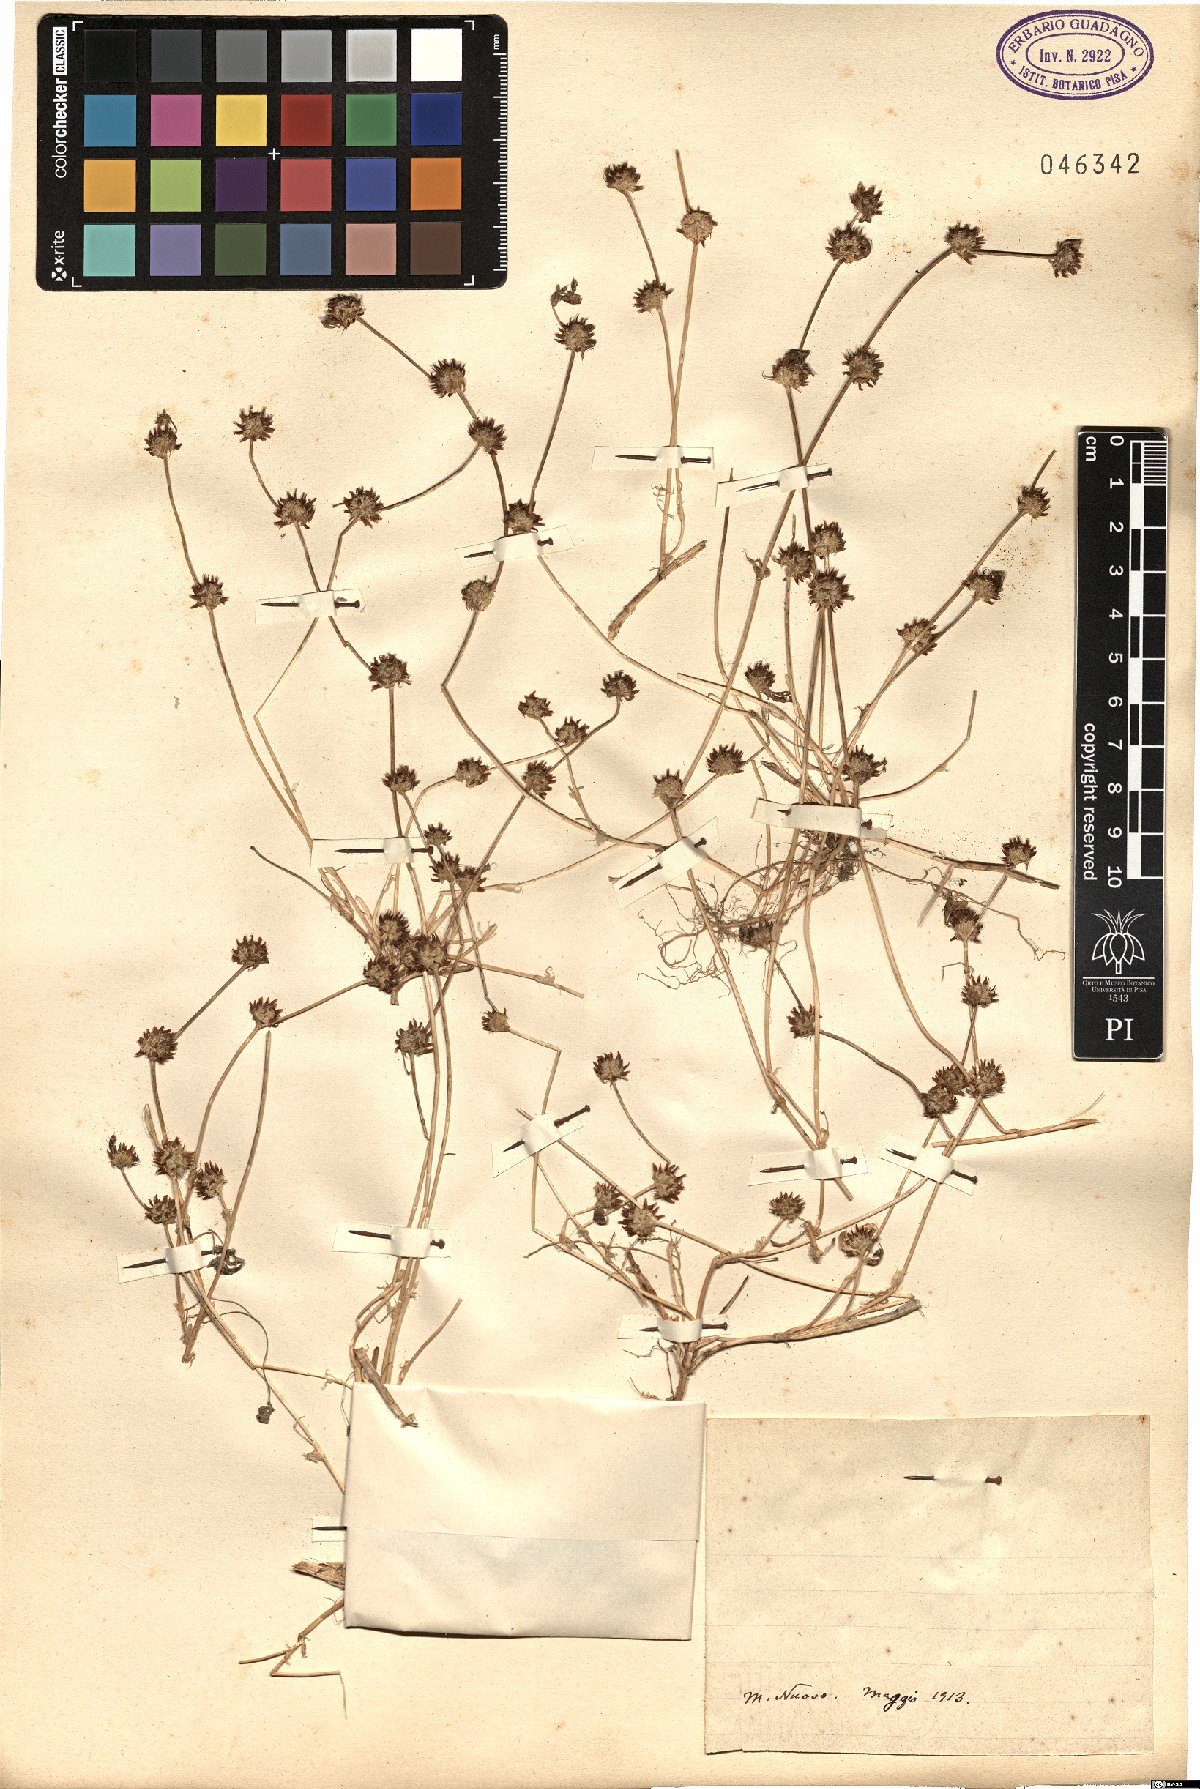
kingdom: Plantae
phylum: Tracheophyta
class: Magnoliopsida
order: Fabales
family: Fabaceae
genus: Trifolium
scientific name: Trifolium
